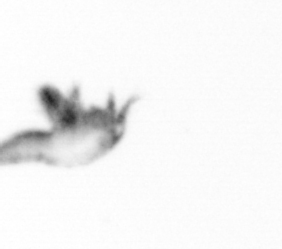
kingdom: Animalia
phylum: Arthropoda
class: Copepoda
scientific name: Copepoda
